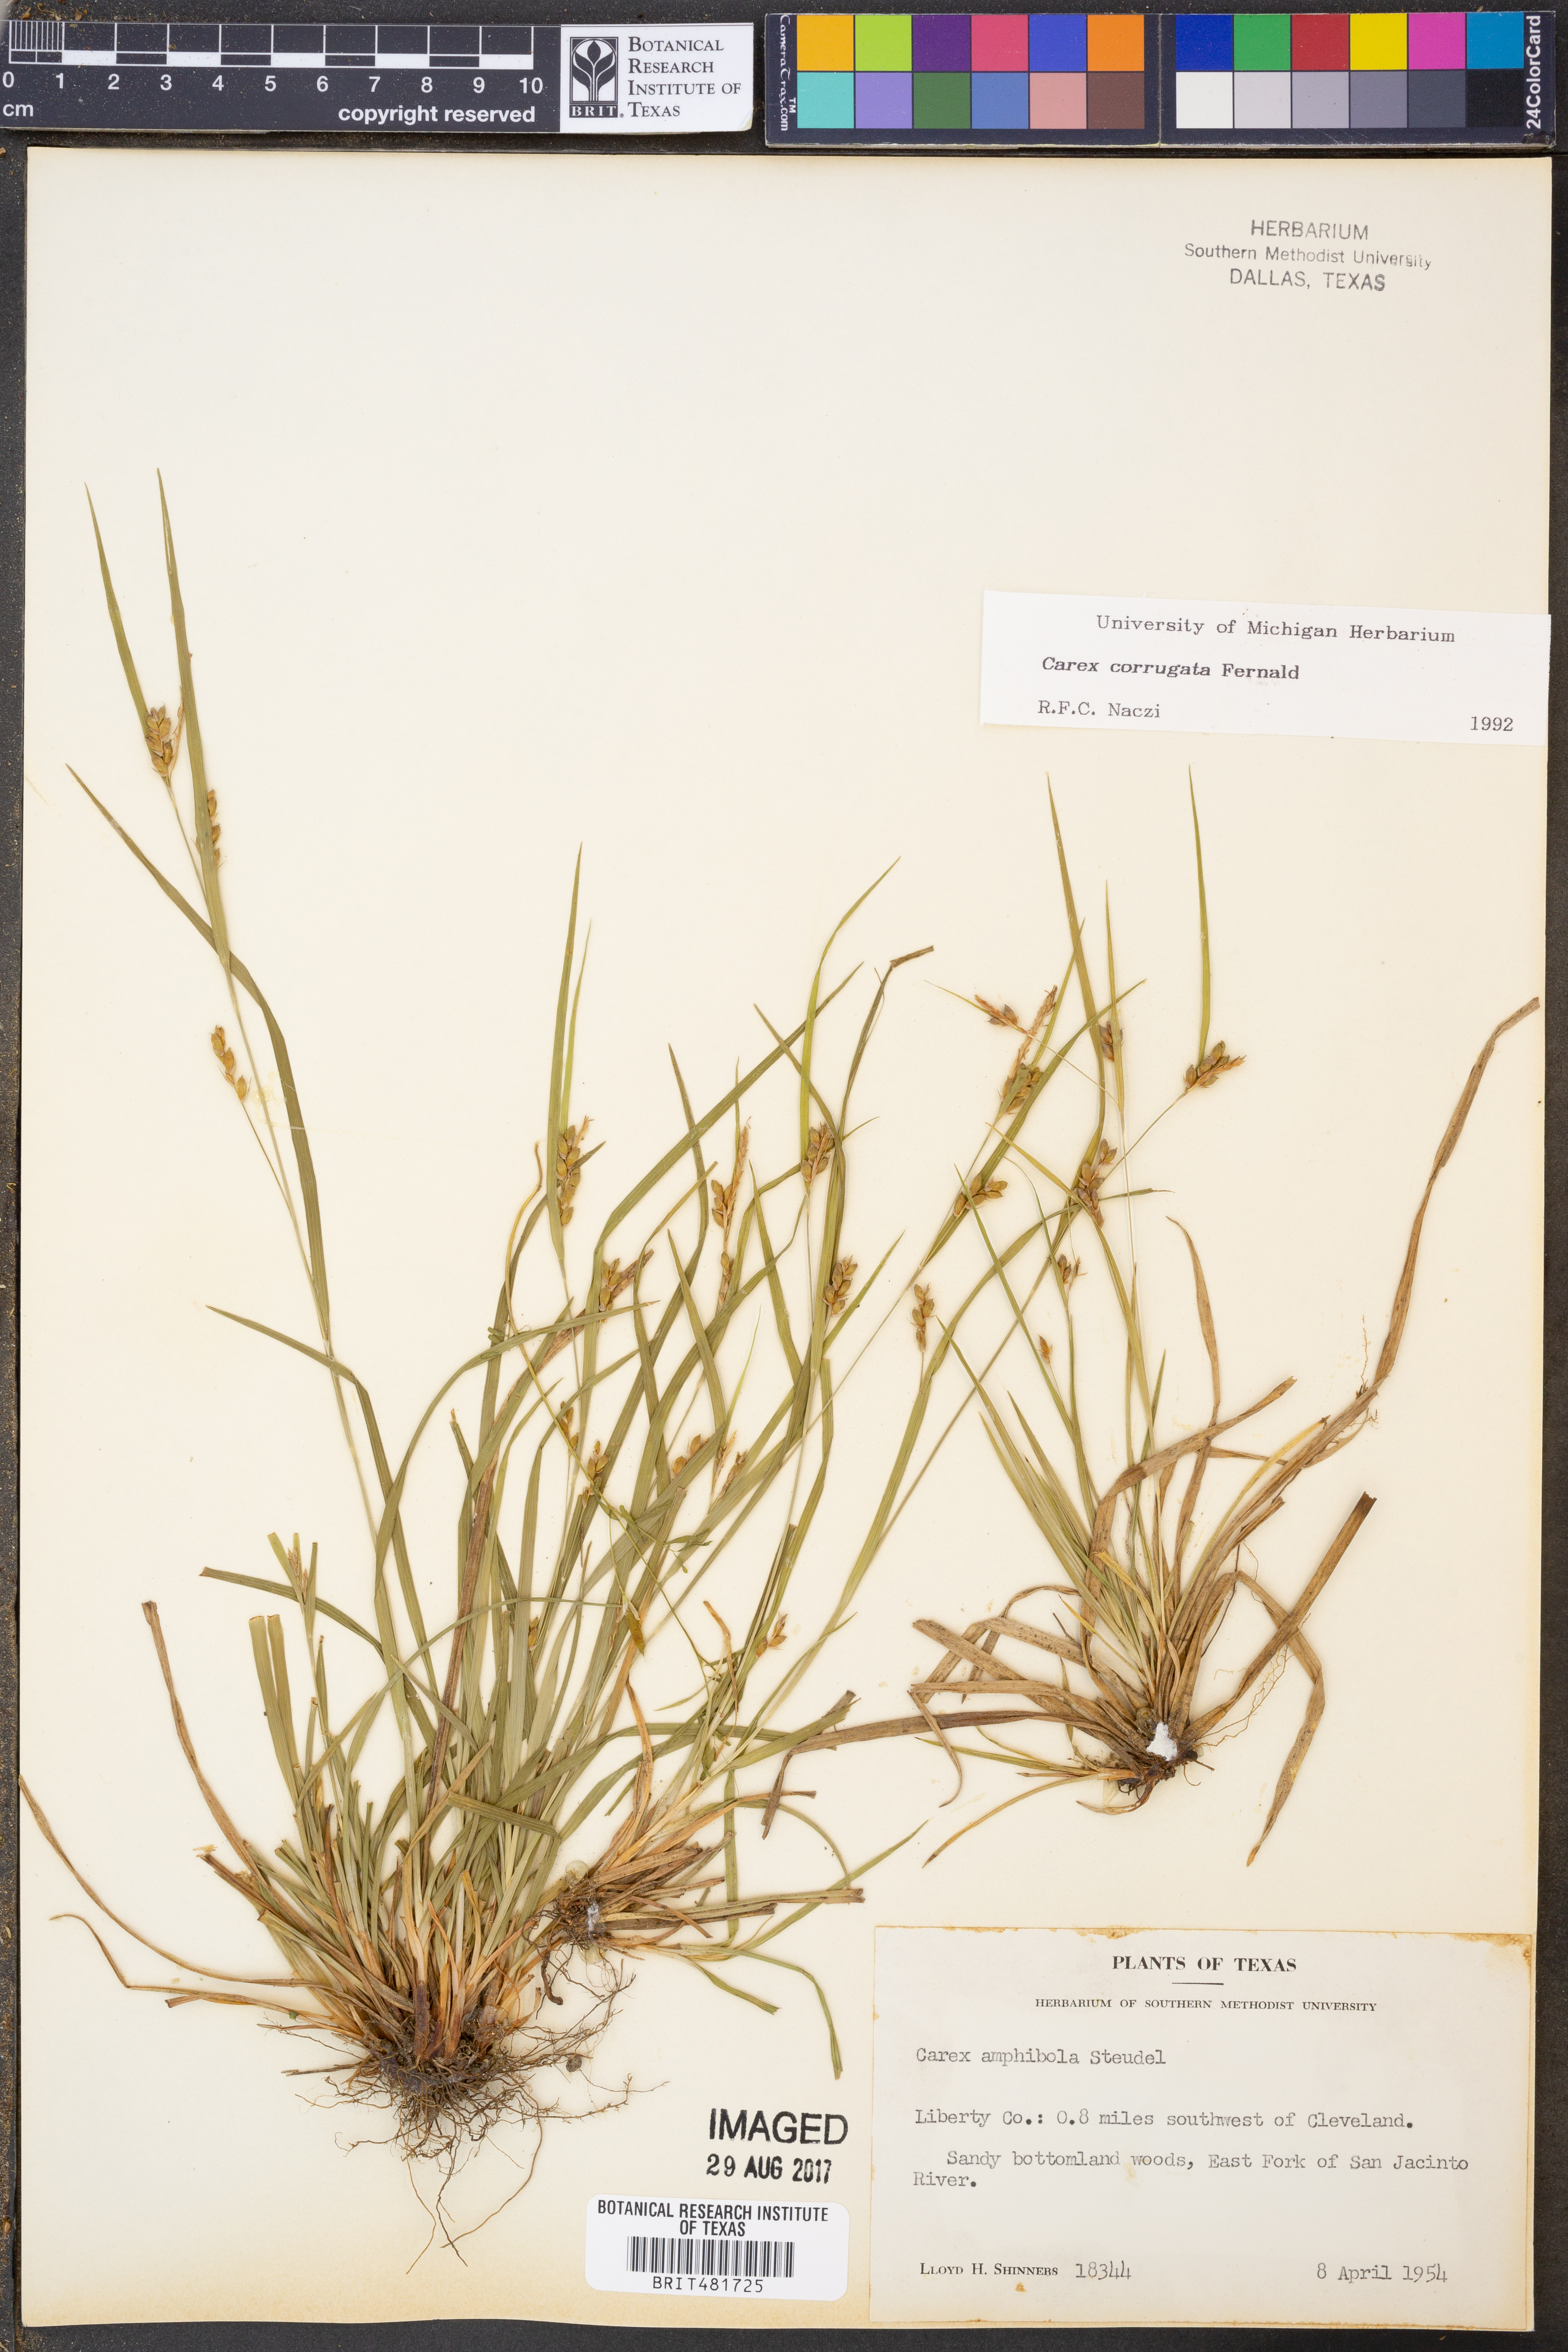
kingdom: Plantae
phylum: Tracheophyta
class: Liliopsida
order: Poales
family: Cyperaceae
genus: Carex
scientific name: Carex corrugata
